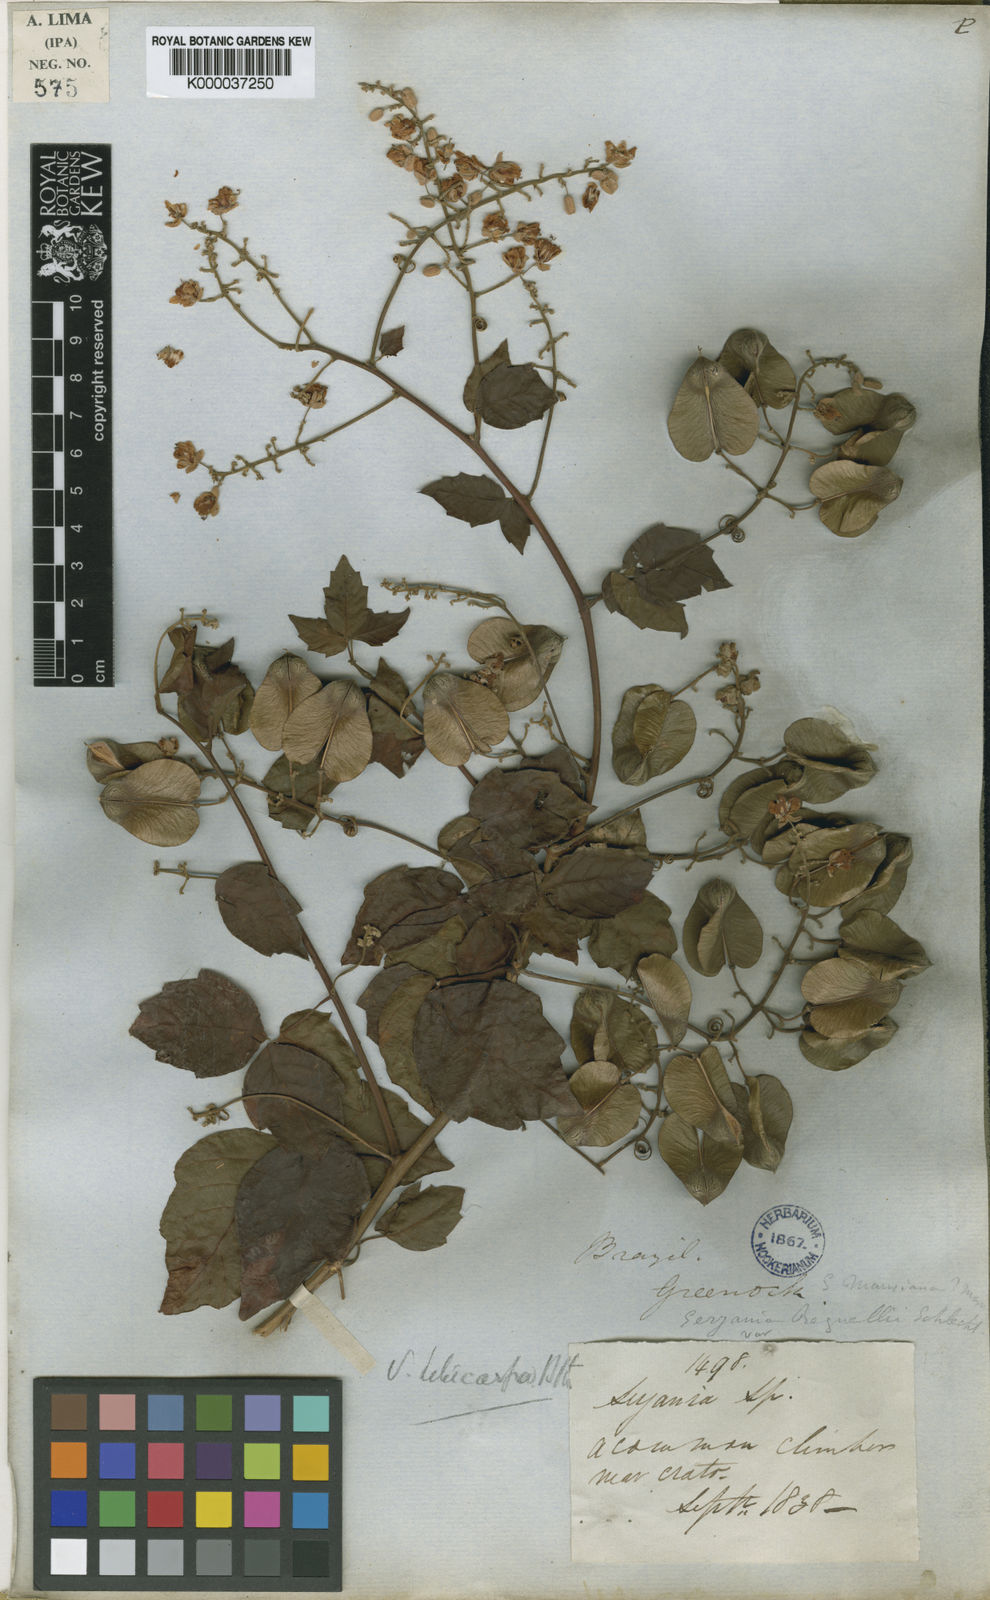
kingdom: Plantae
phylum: Tracheophyta
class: Magnoliopsida
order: Sapindales
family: Sapindaceae
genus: Serjania
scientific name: Serjania hebecarpa
